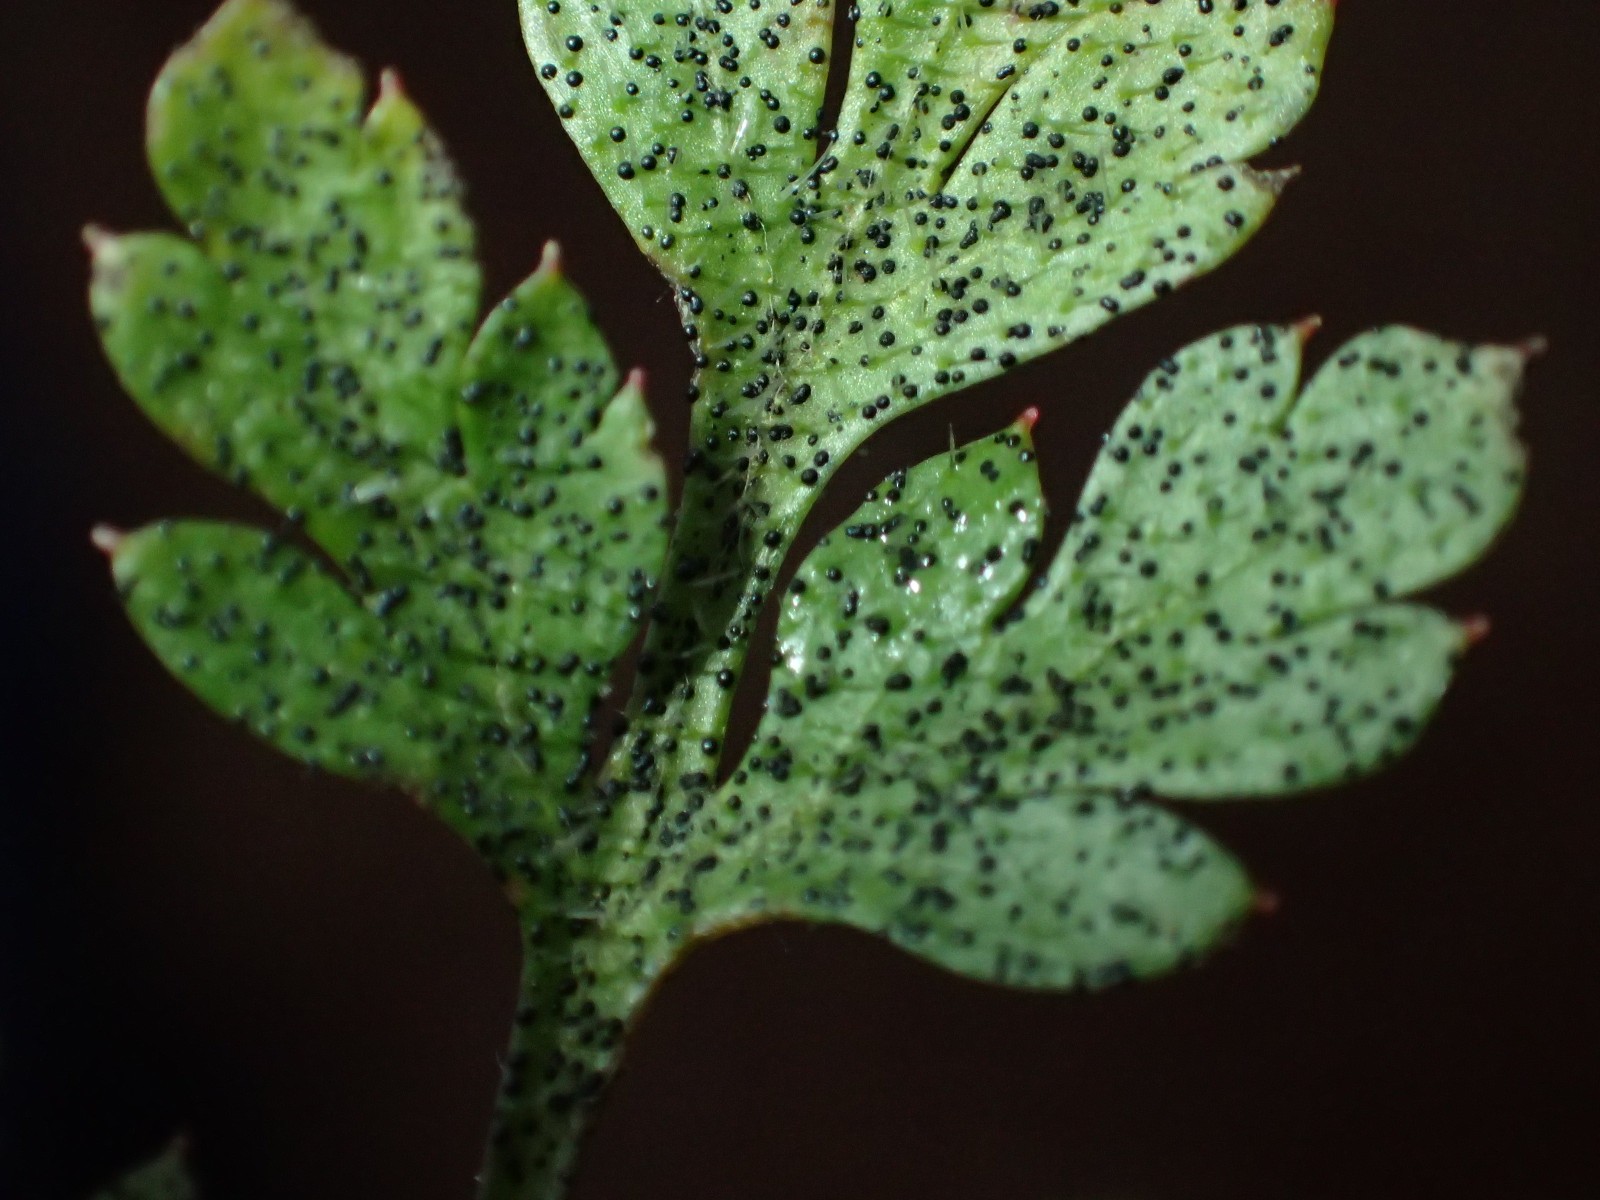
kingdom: Fungi
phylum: Ascomycota
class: Dothideomycetes
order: Venturiales
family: Venturiaceae
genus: Coleroa
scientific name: Coleroa robertiani
